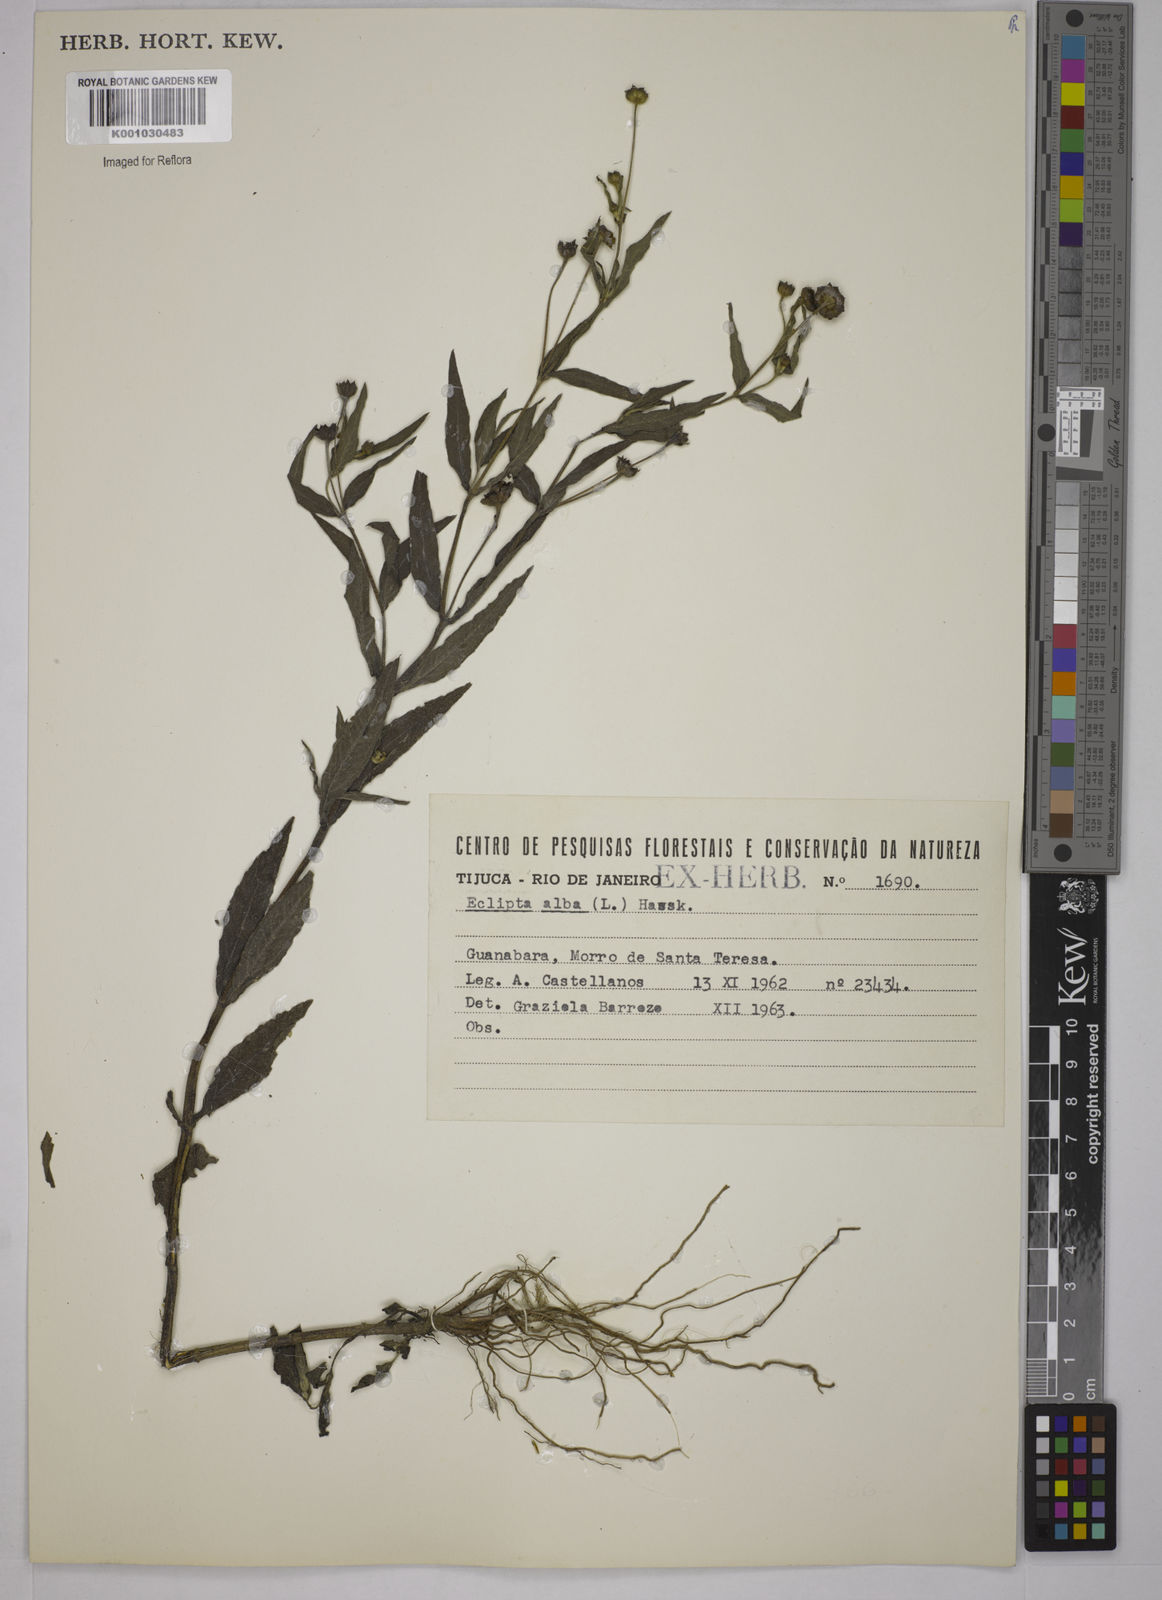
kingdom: Plantae
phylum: Tracheophyta
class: Magnoliopsida
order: Asterales
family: Asteraceae
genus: Eclipta
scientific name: Eclipta prostrata
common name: False daisy
